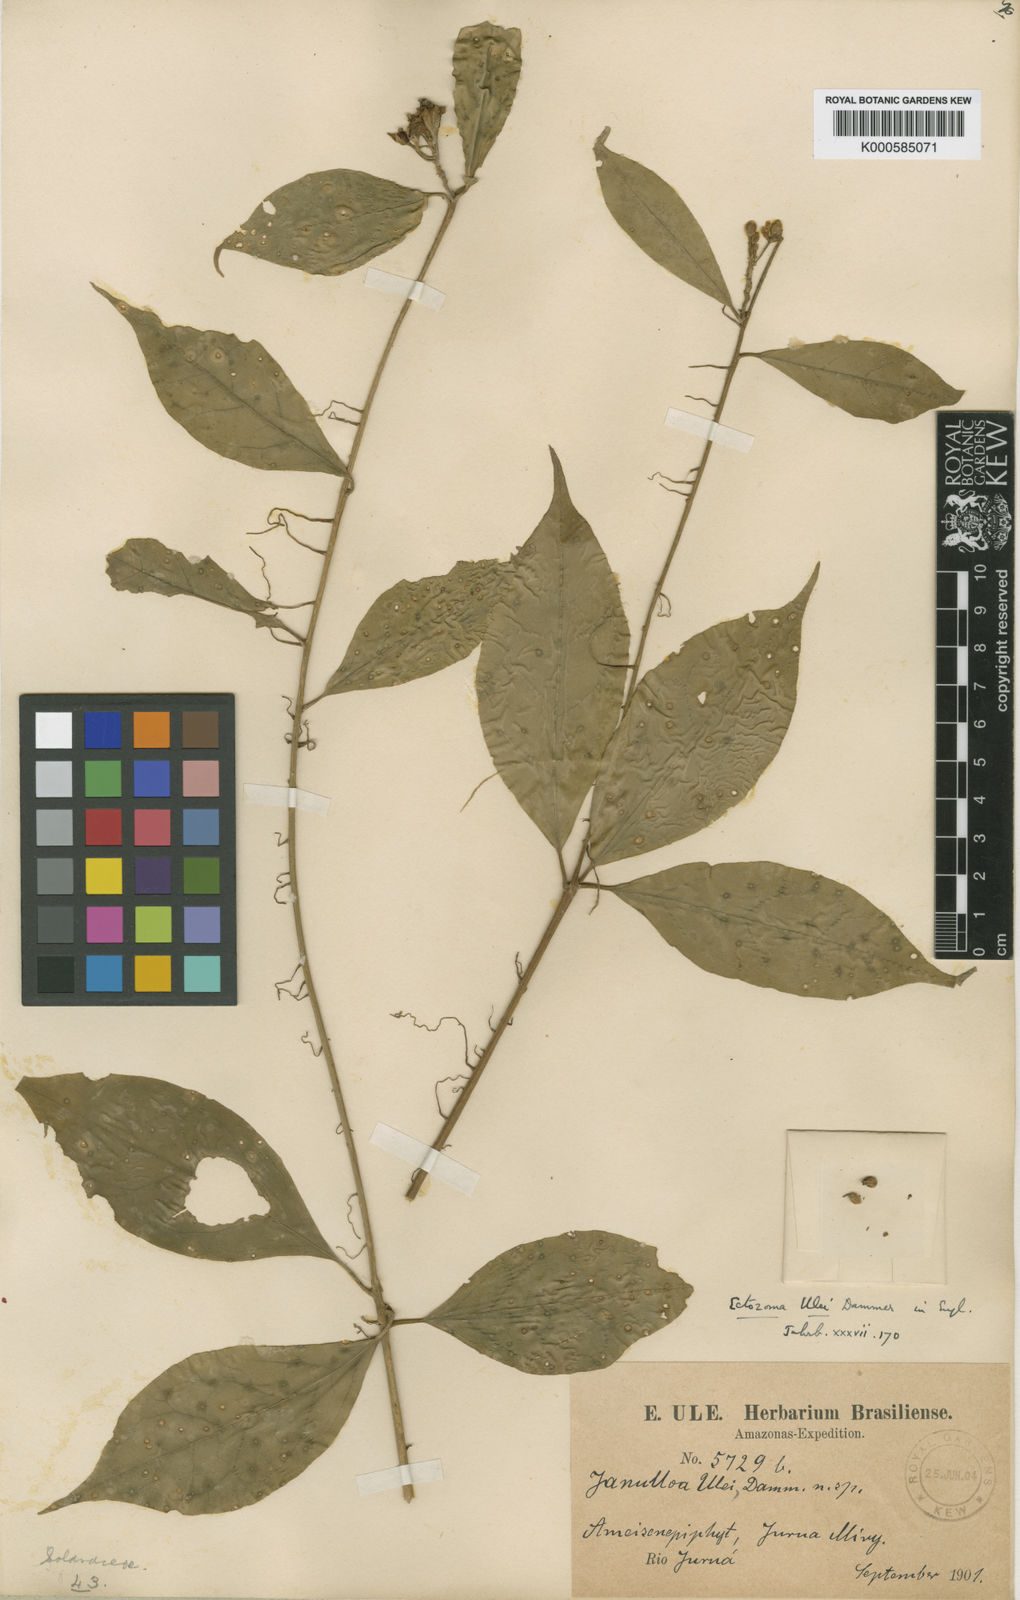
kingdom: Plantae
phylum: Tracheophyta
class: Magnoliopsida
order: Solanales
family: Solanaceae
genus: Juanulloa
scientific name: Juanulloa
